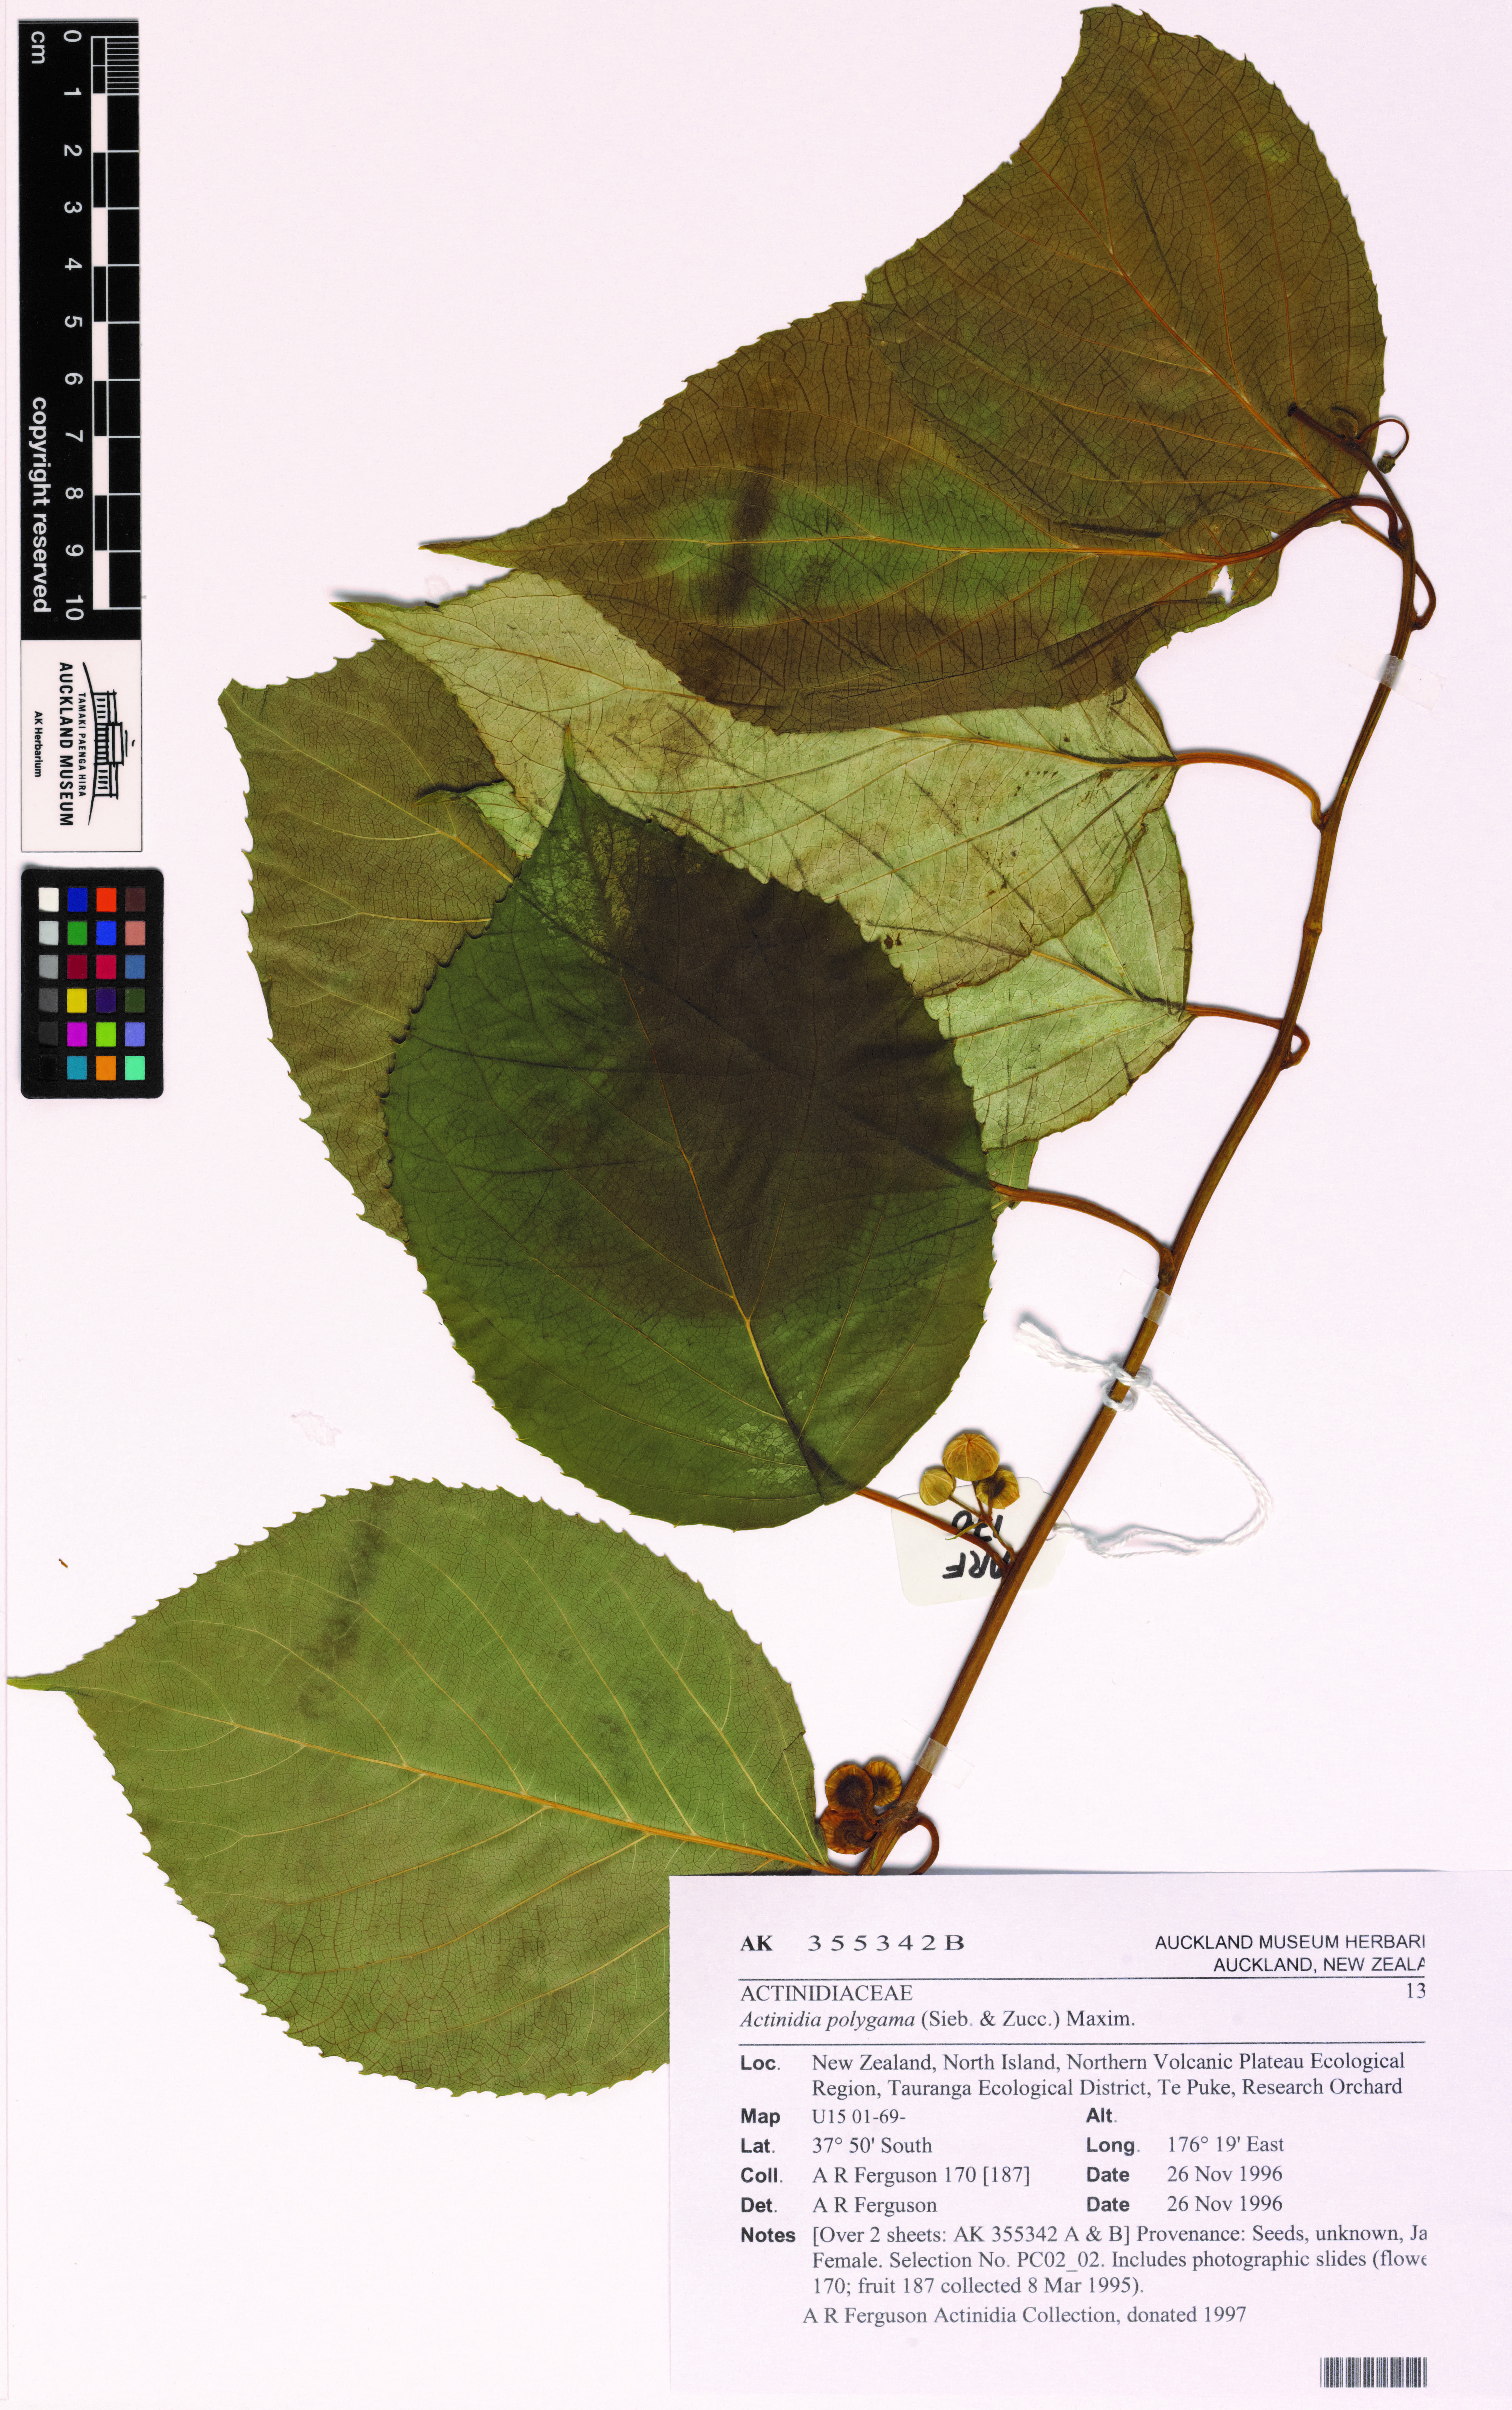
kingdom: Plantae
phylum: Tracheophyta
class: Magnoliopsida
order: Ericales
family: Actinidiaceae
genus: Actinidia
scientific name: Actinidia polygama
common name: Silver vine
